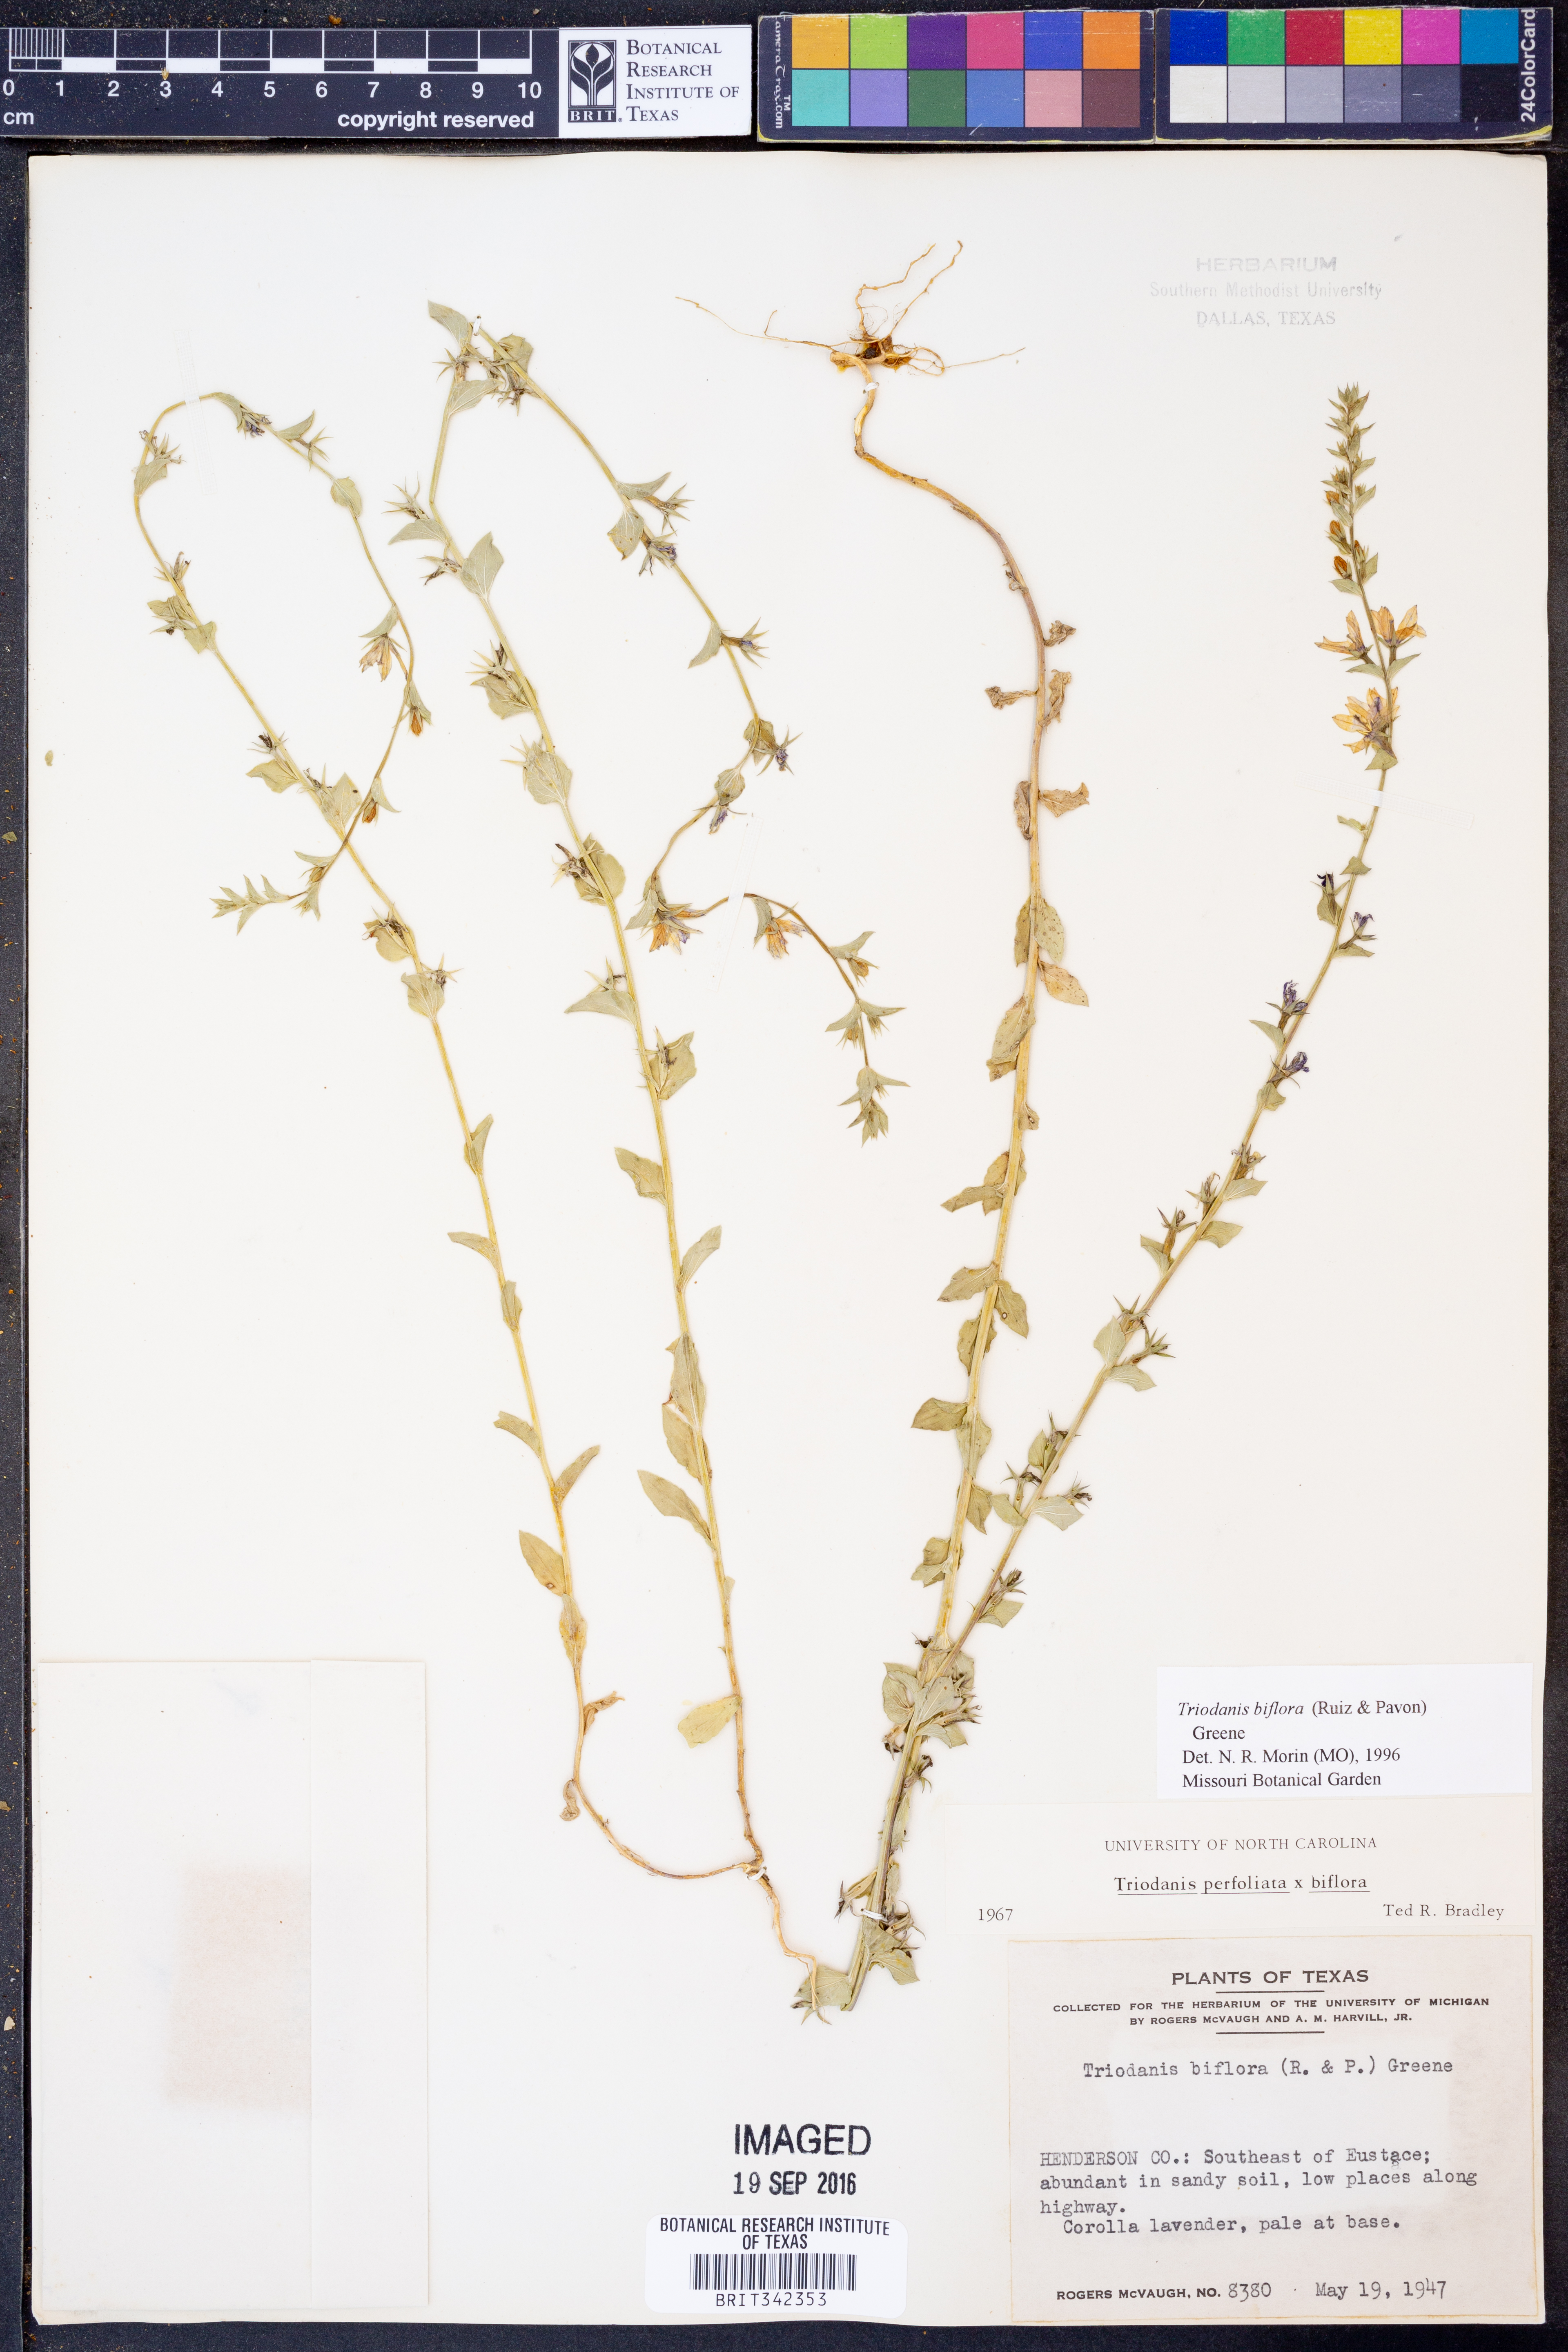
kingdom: Plantae
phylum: Tracheophyta
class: Magnoliopsida
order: Asterales
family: Campanulaceae
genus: Triodanis
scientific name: Triodanis perfoliata
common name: Clasping venus' looking-glass
